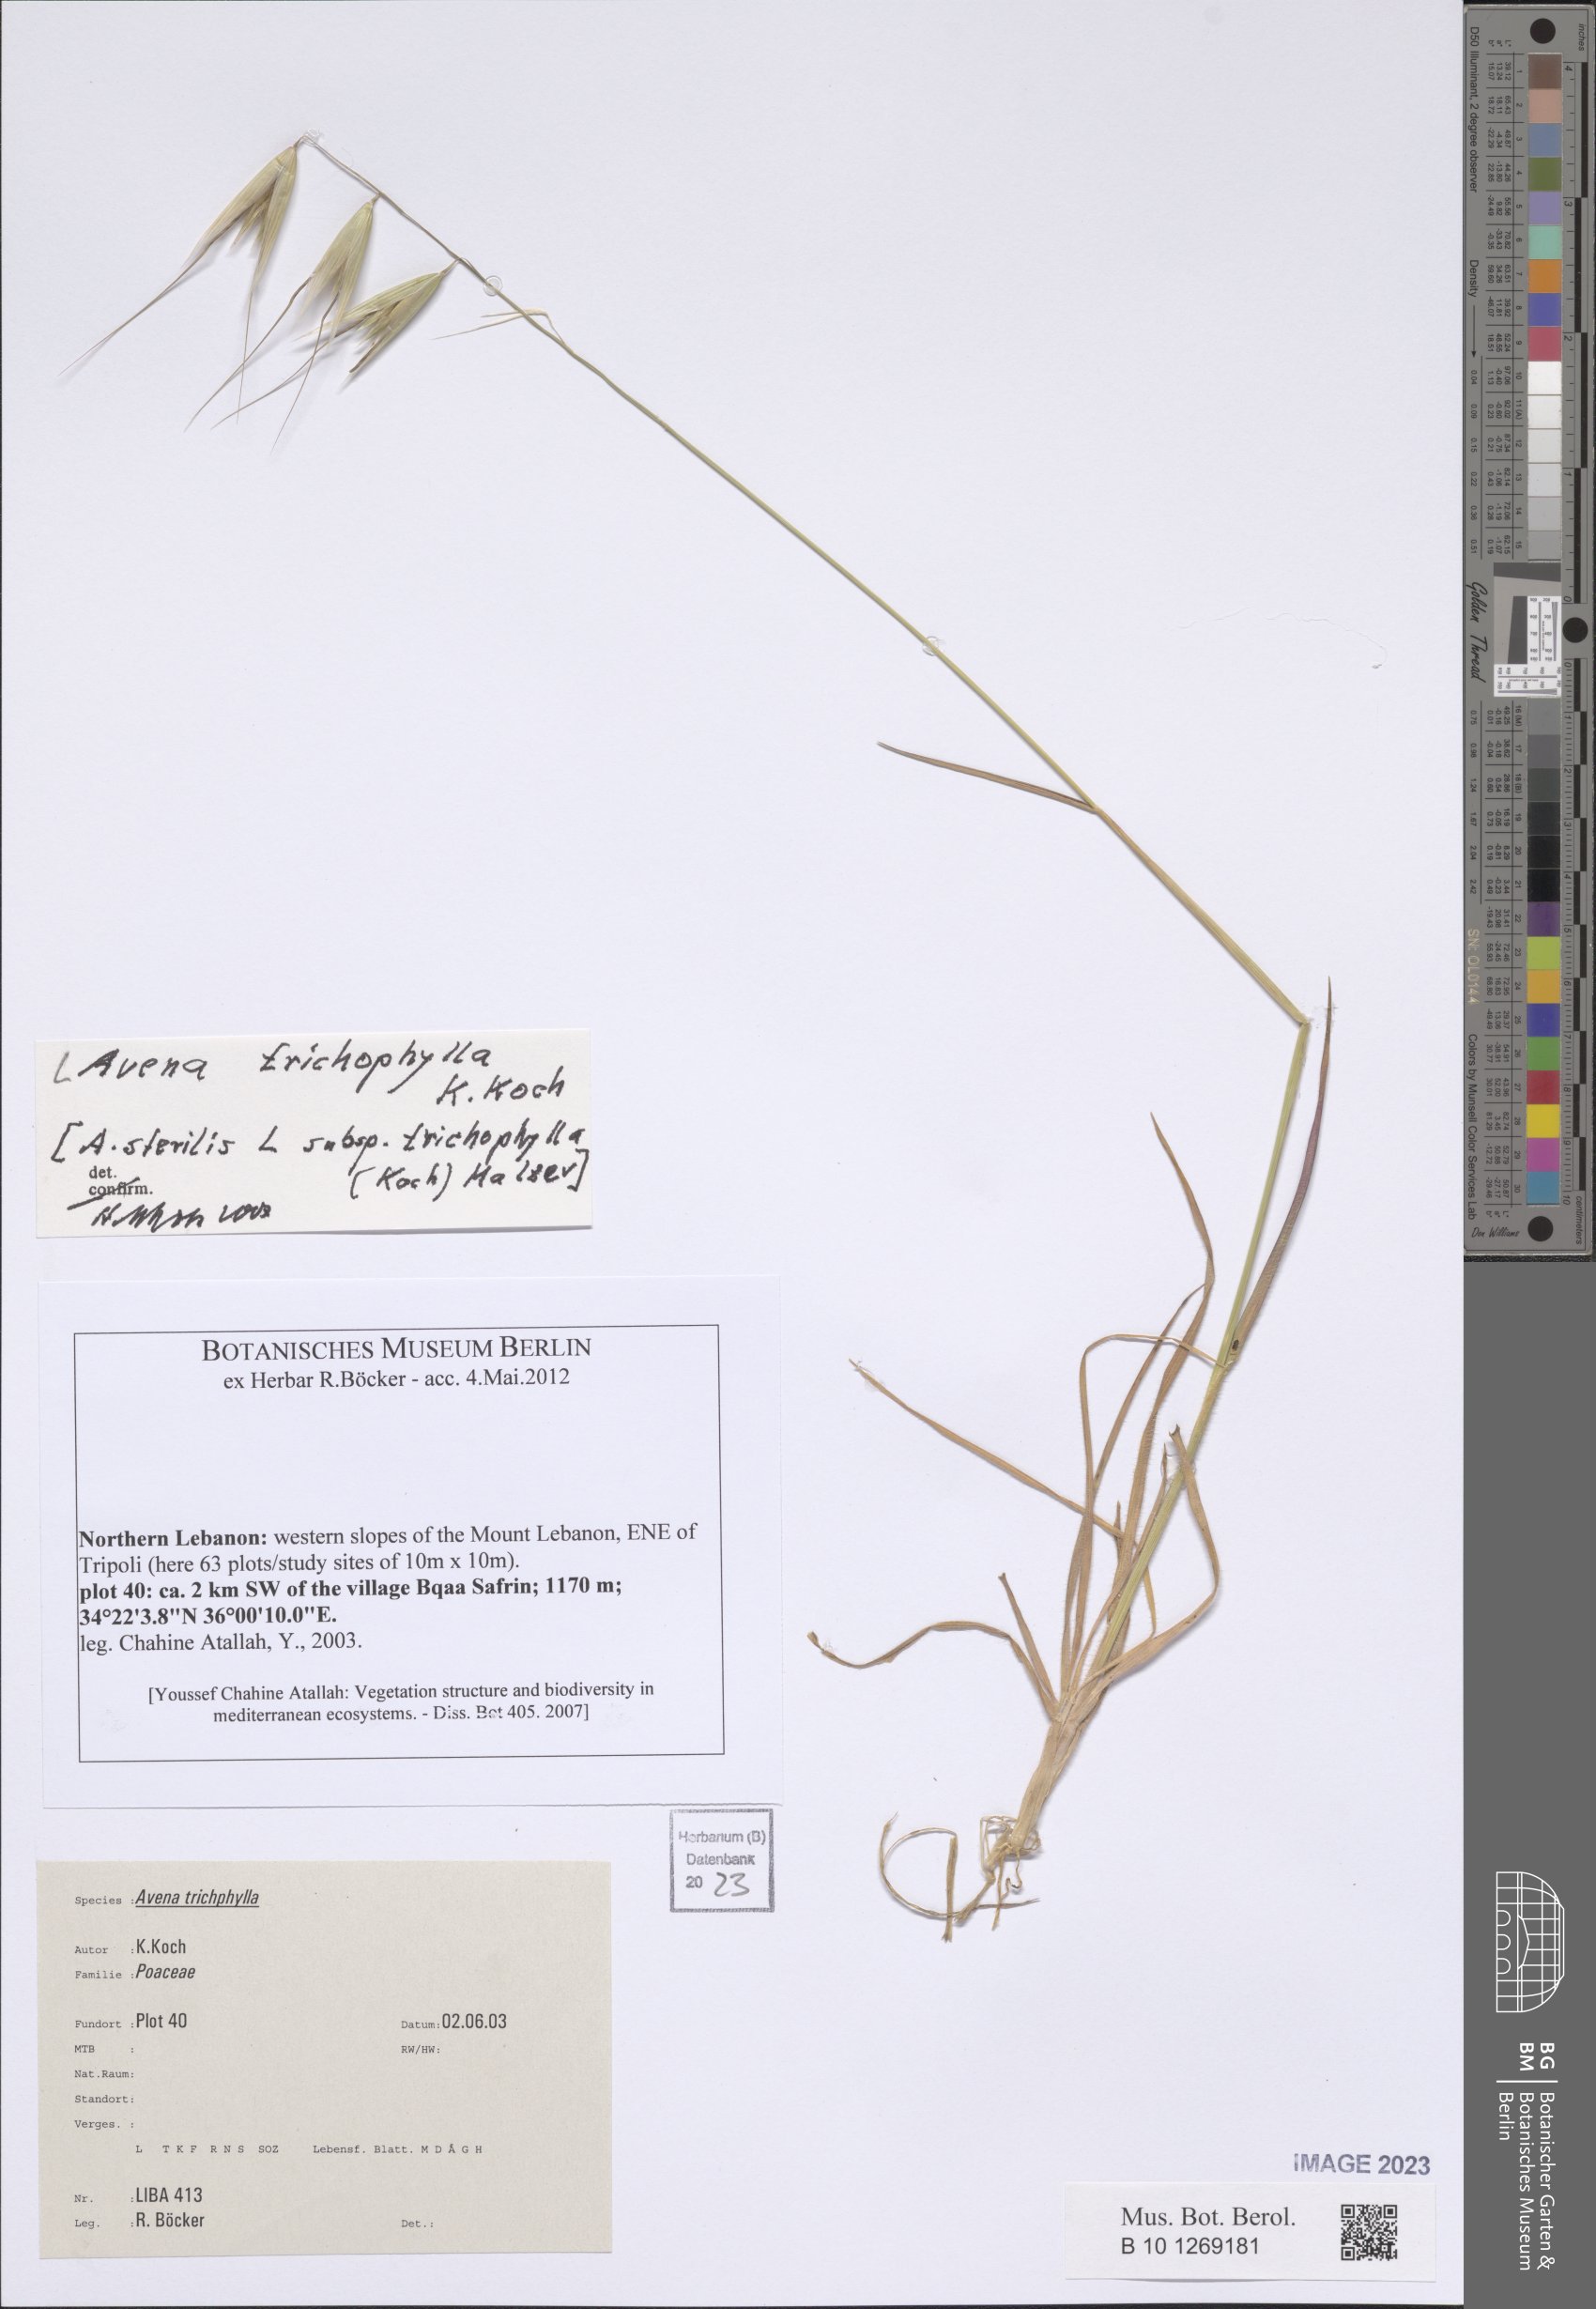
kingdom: Plantae
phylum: Tracheophyta
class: Liliopsida
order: Poales
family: Poaceae
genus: Avena
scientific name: Avena sterilis
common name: Animated oat
